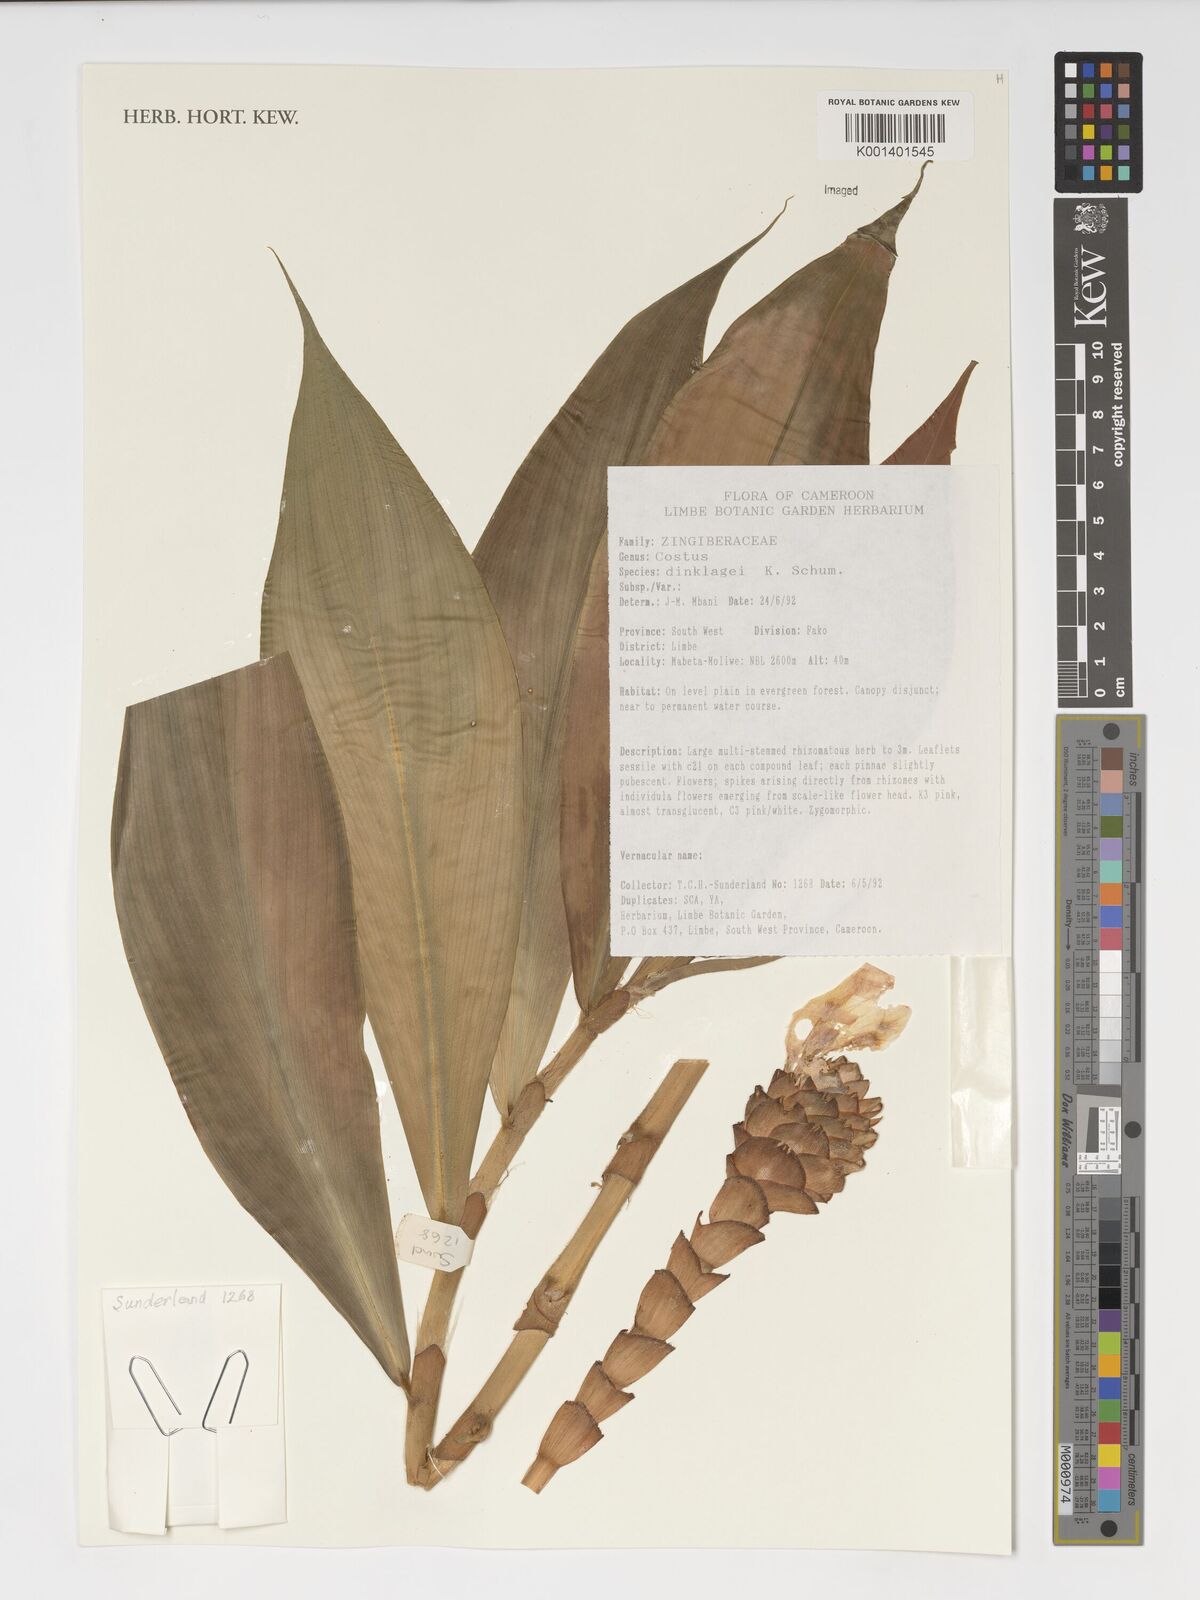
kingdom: Plantae
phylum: Tracheophyta
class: Liliopsida
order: Zingiberales
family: Costaceae
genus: Costus
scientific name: Costus dinklagei
